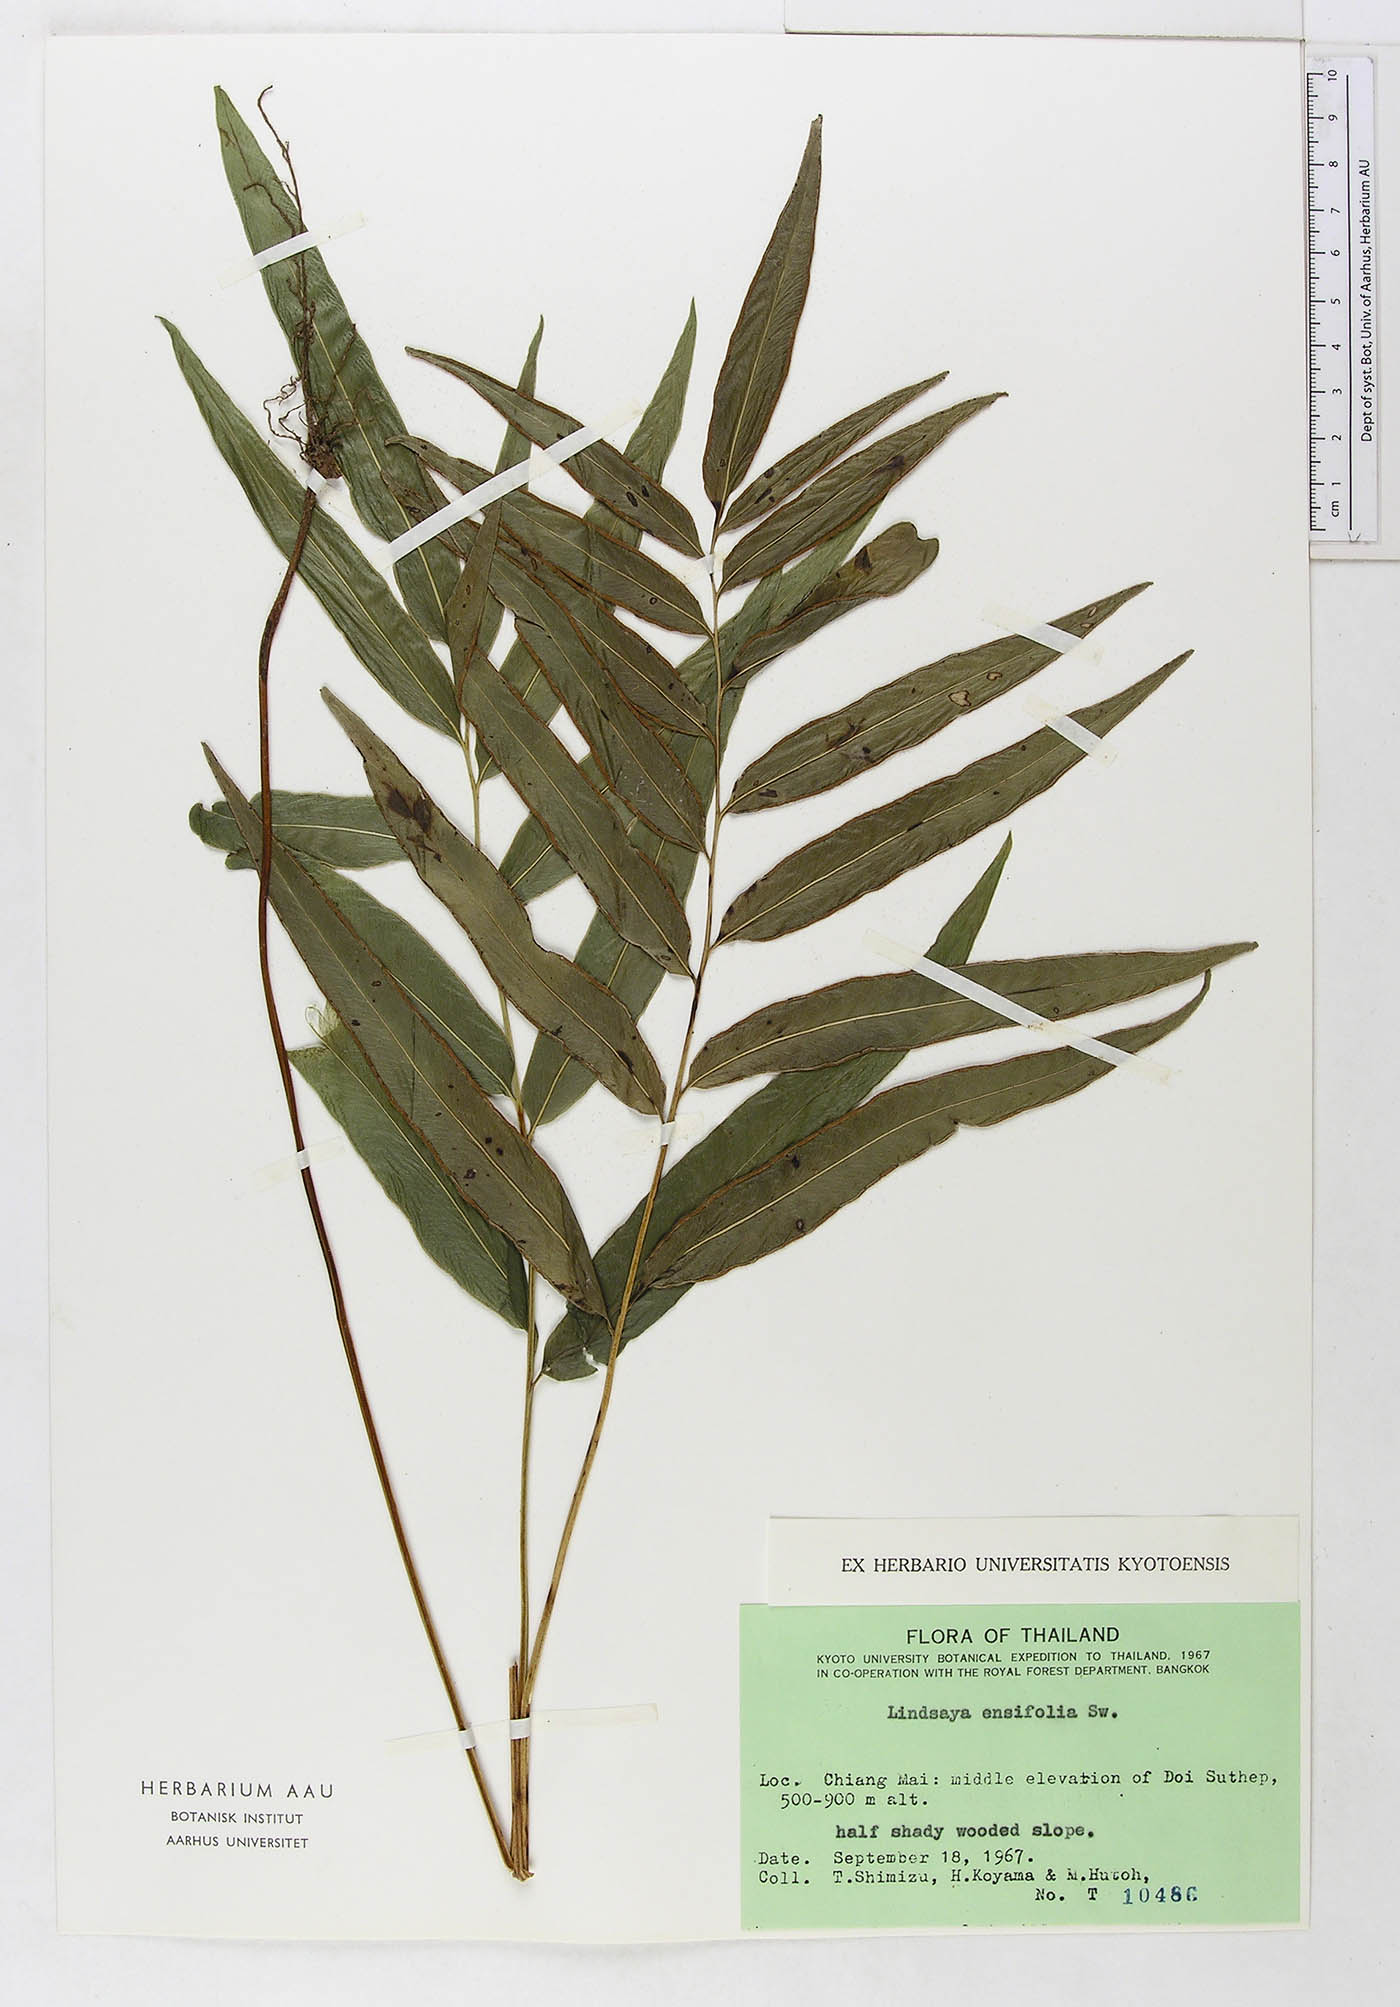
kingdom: Plantae
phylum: Tracheophyta
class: Polypodiopsida
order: Polypodiales
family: Lindsaeaceae
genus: Lindsaea
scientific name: Lindsaea ensifolia
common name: Graceful necklace fern
